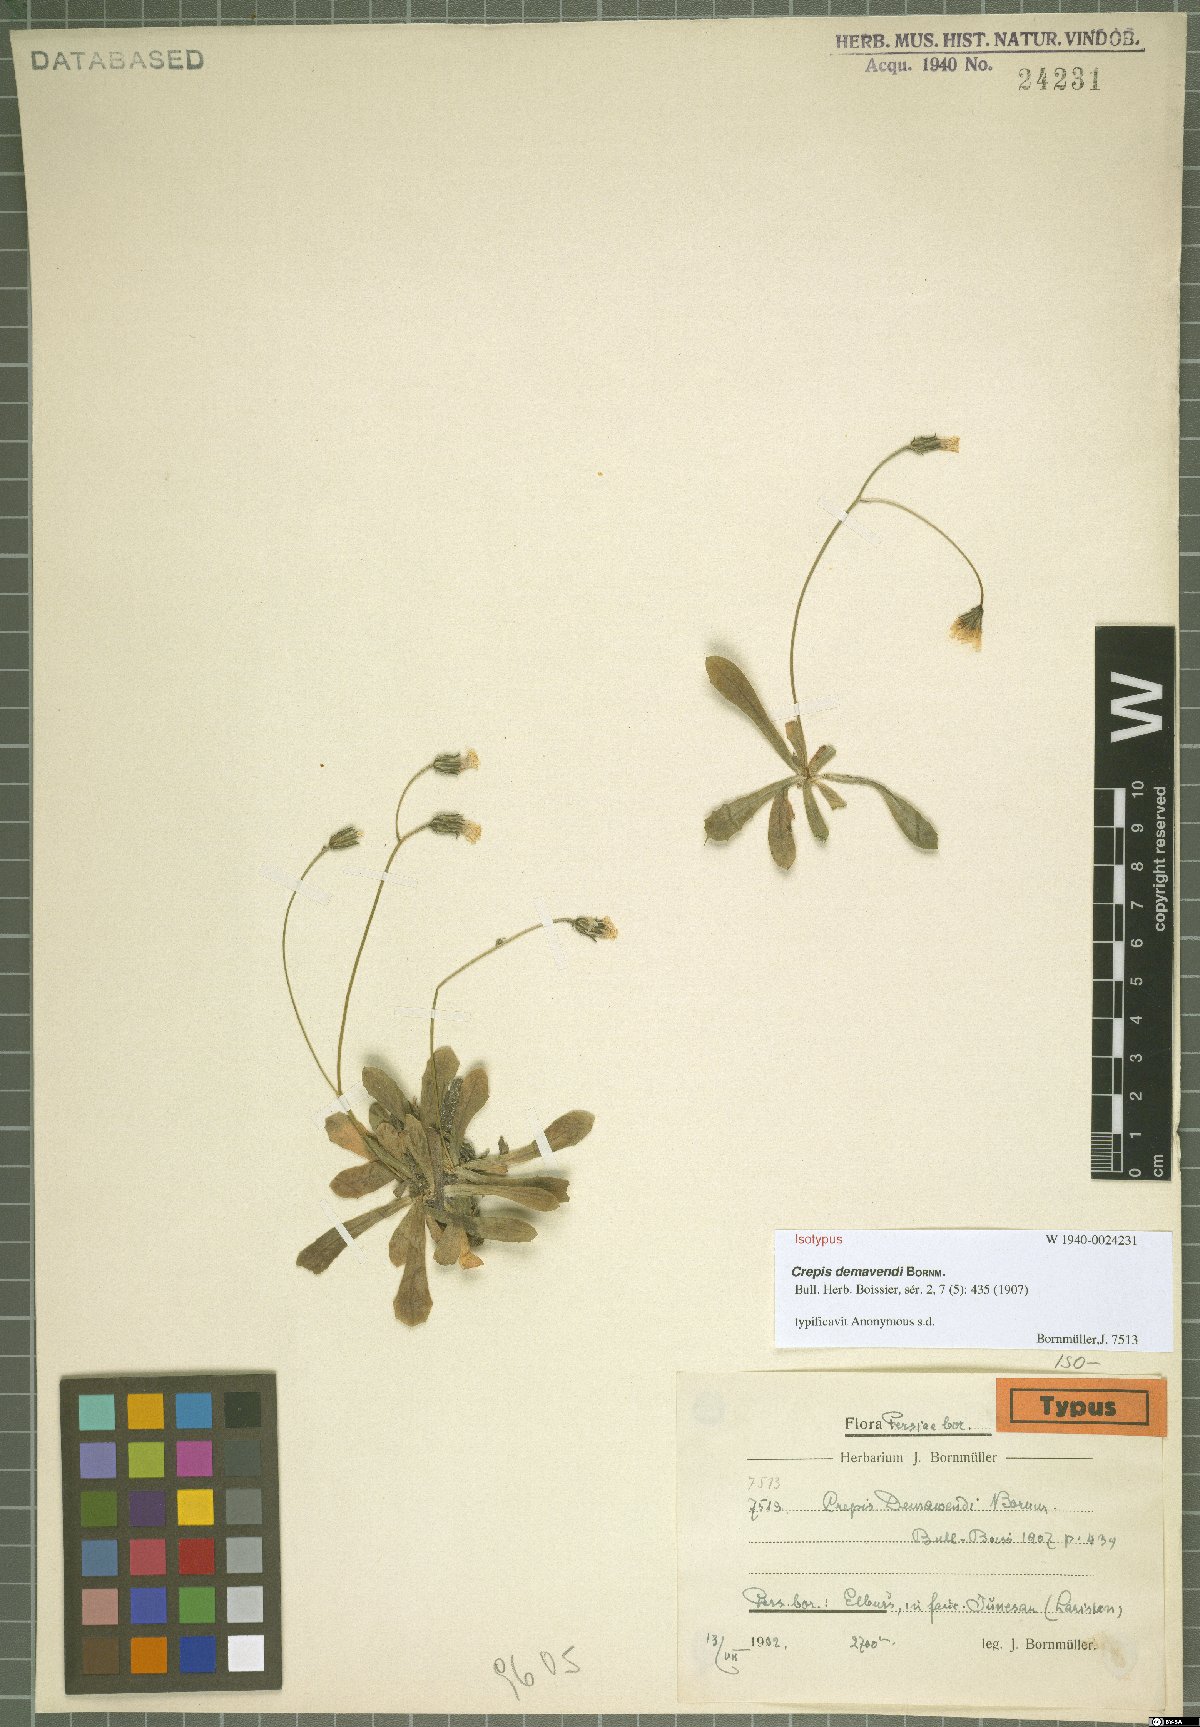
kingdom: Plantae
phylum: Tracheophyta
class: Magnoliopsida
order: Asterales
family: Asteraceae
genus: Crepis
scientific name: Crepis demavendi
